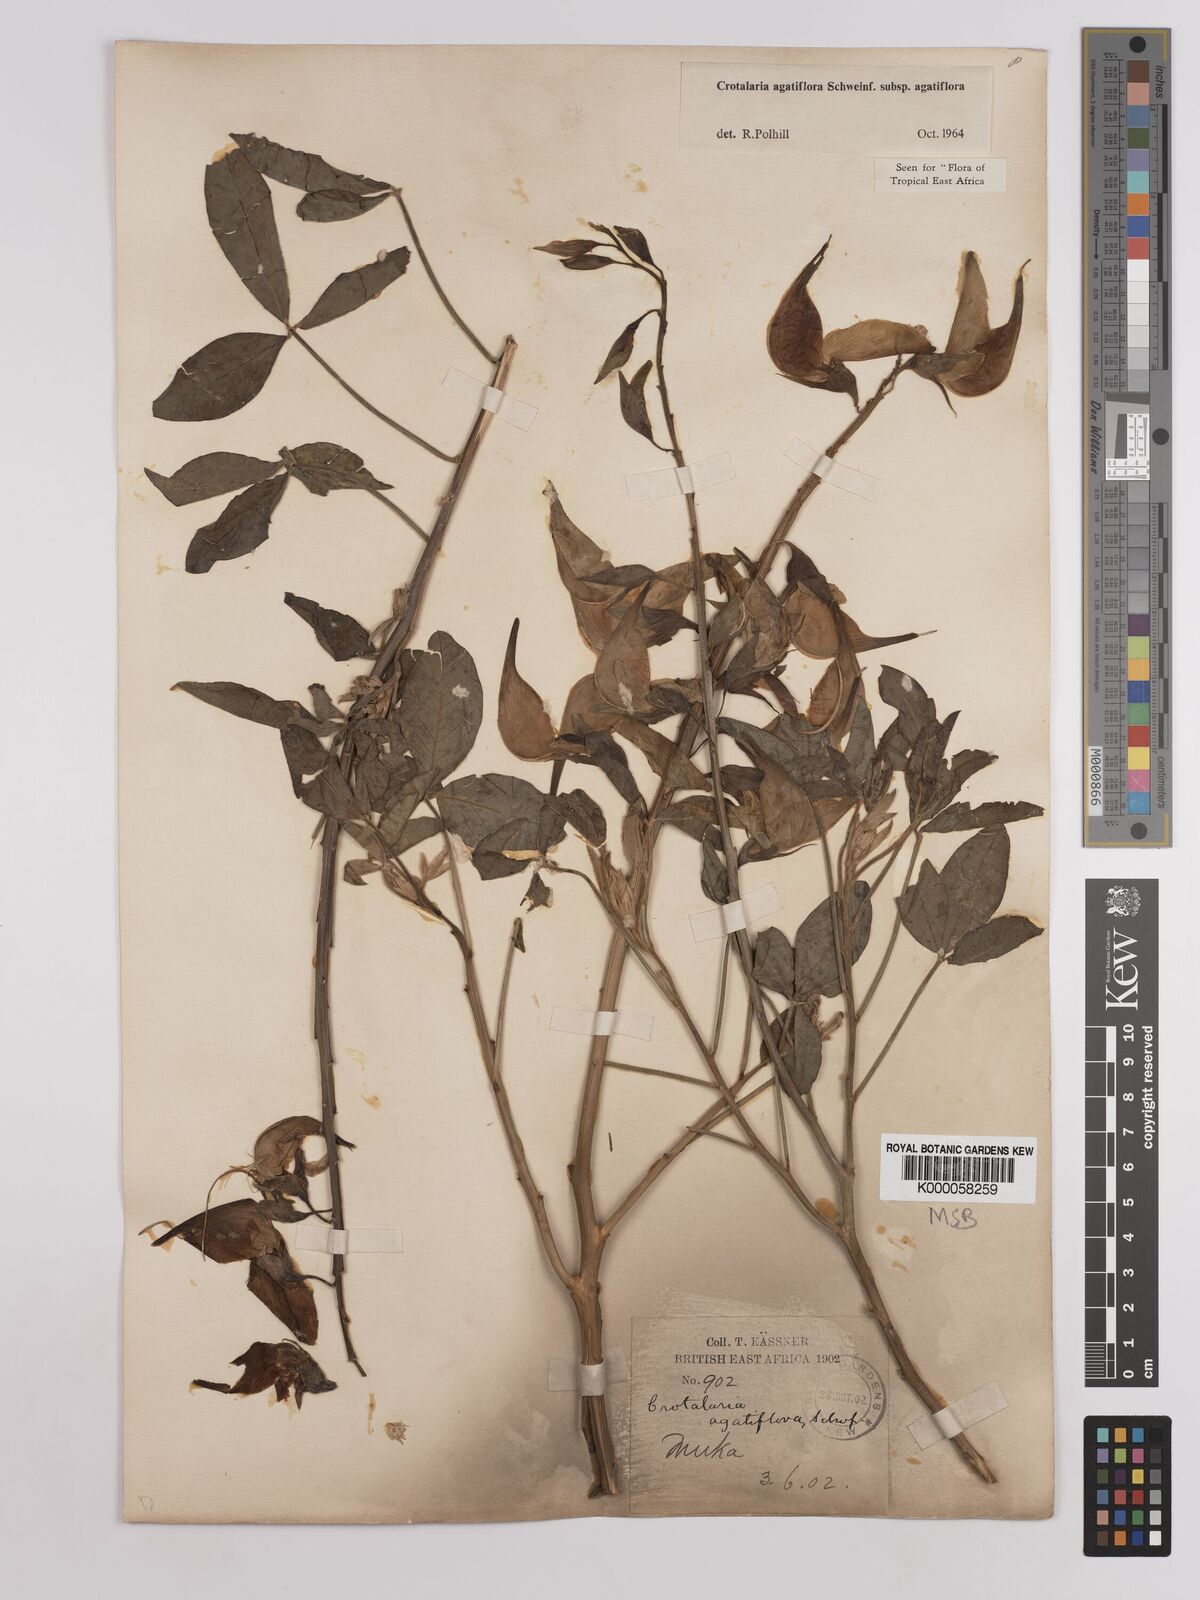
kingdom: Plantae
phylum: Tracheophyta
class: Magnoliopsida
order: Fabales
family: Fabaceae
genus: Crotalaria
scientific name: Crotalaria
